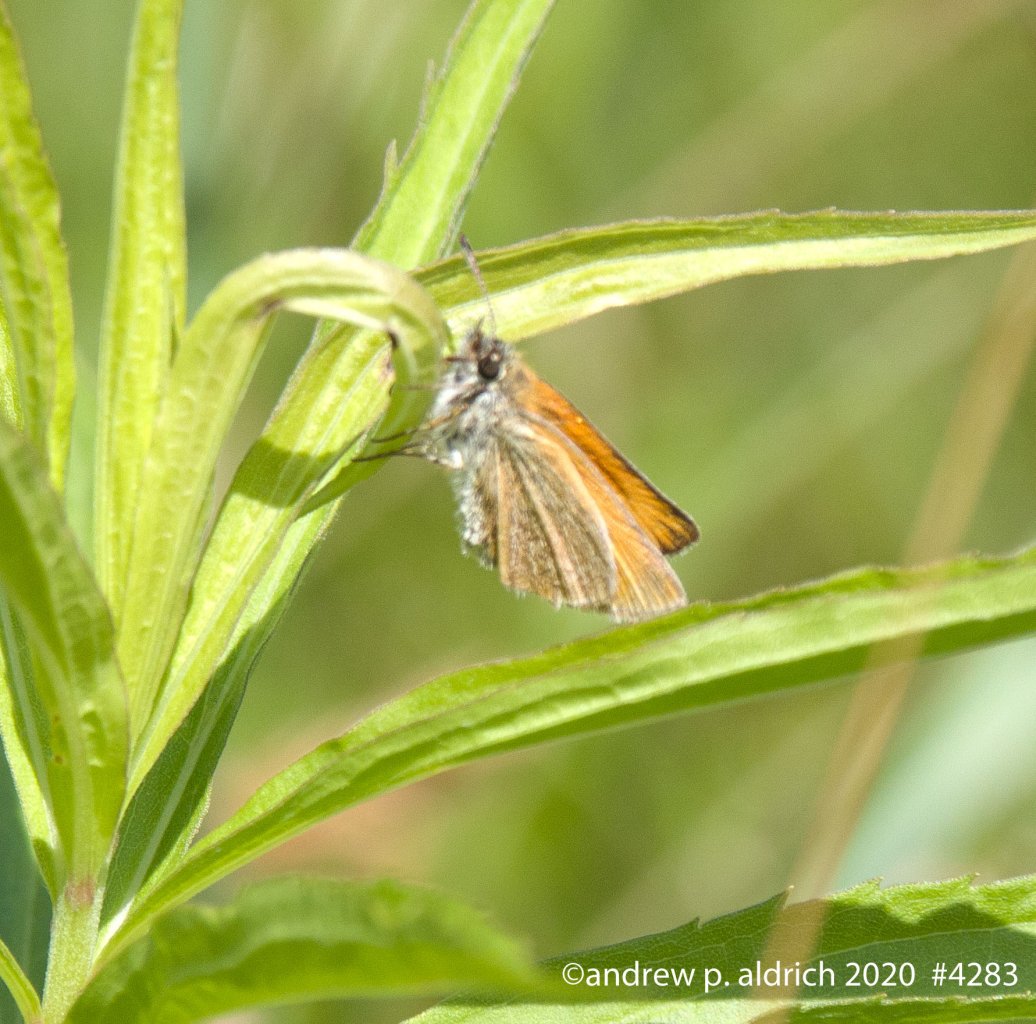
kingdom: Animalia
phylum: Arthropoda
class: Insecta
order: Lepidoptera
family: Hesperiidae
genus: Thymelicus
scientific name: Thymelicus lineola
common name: European Skipper
